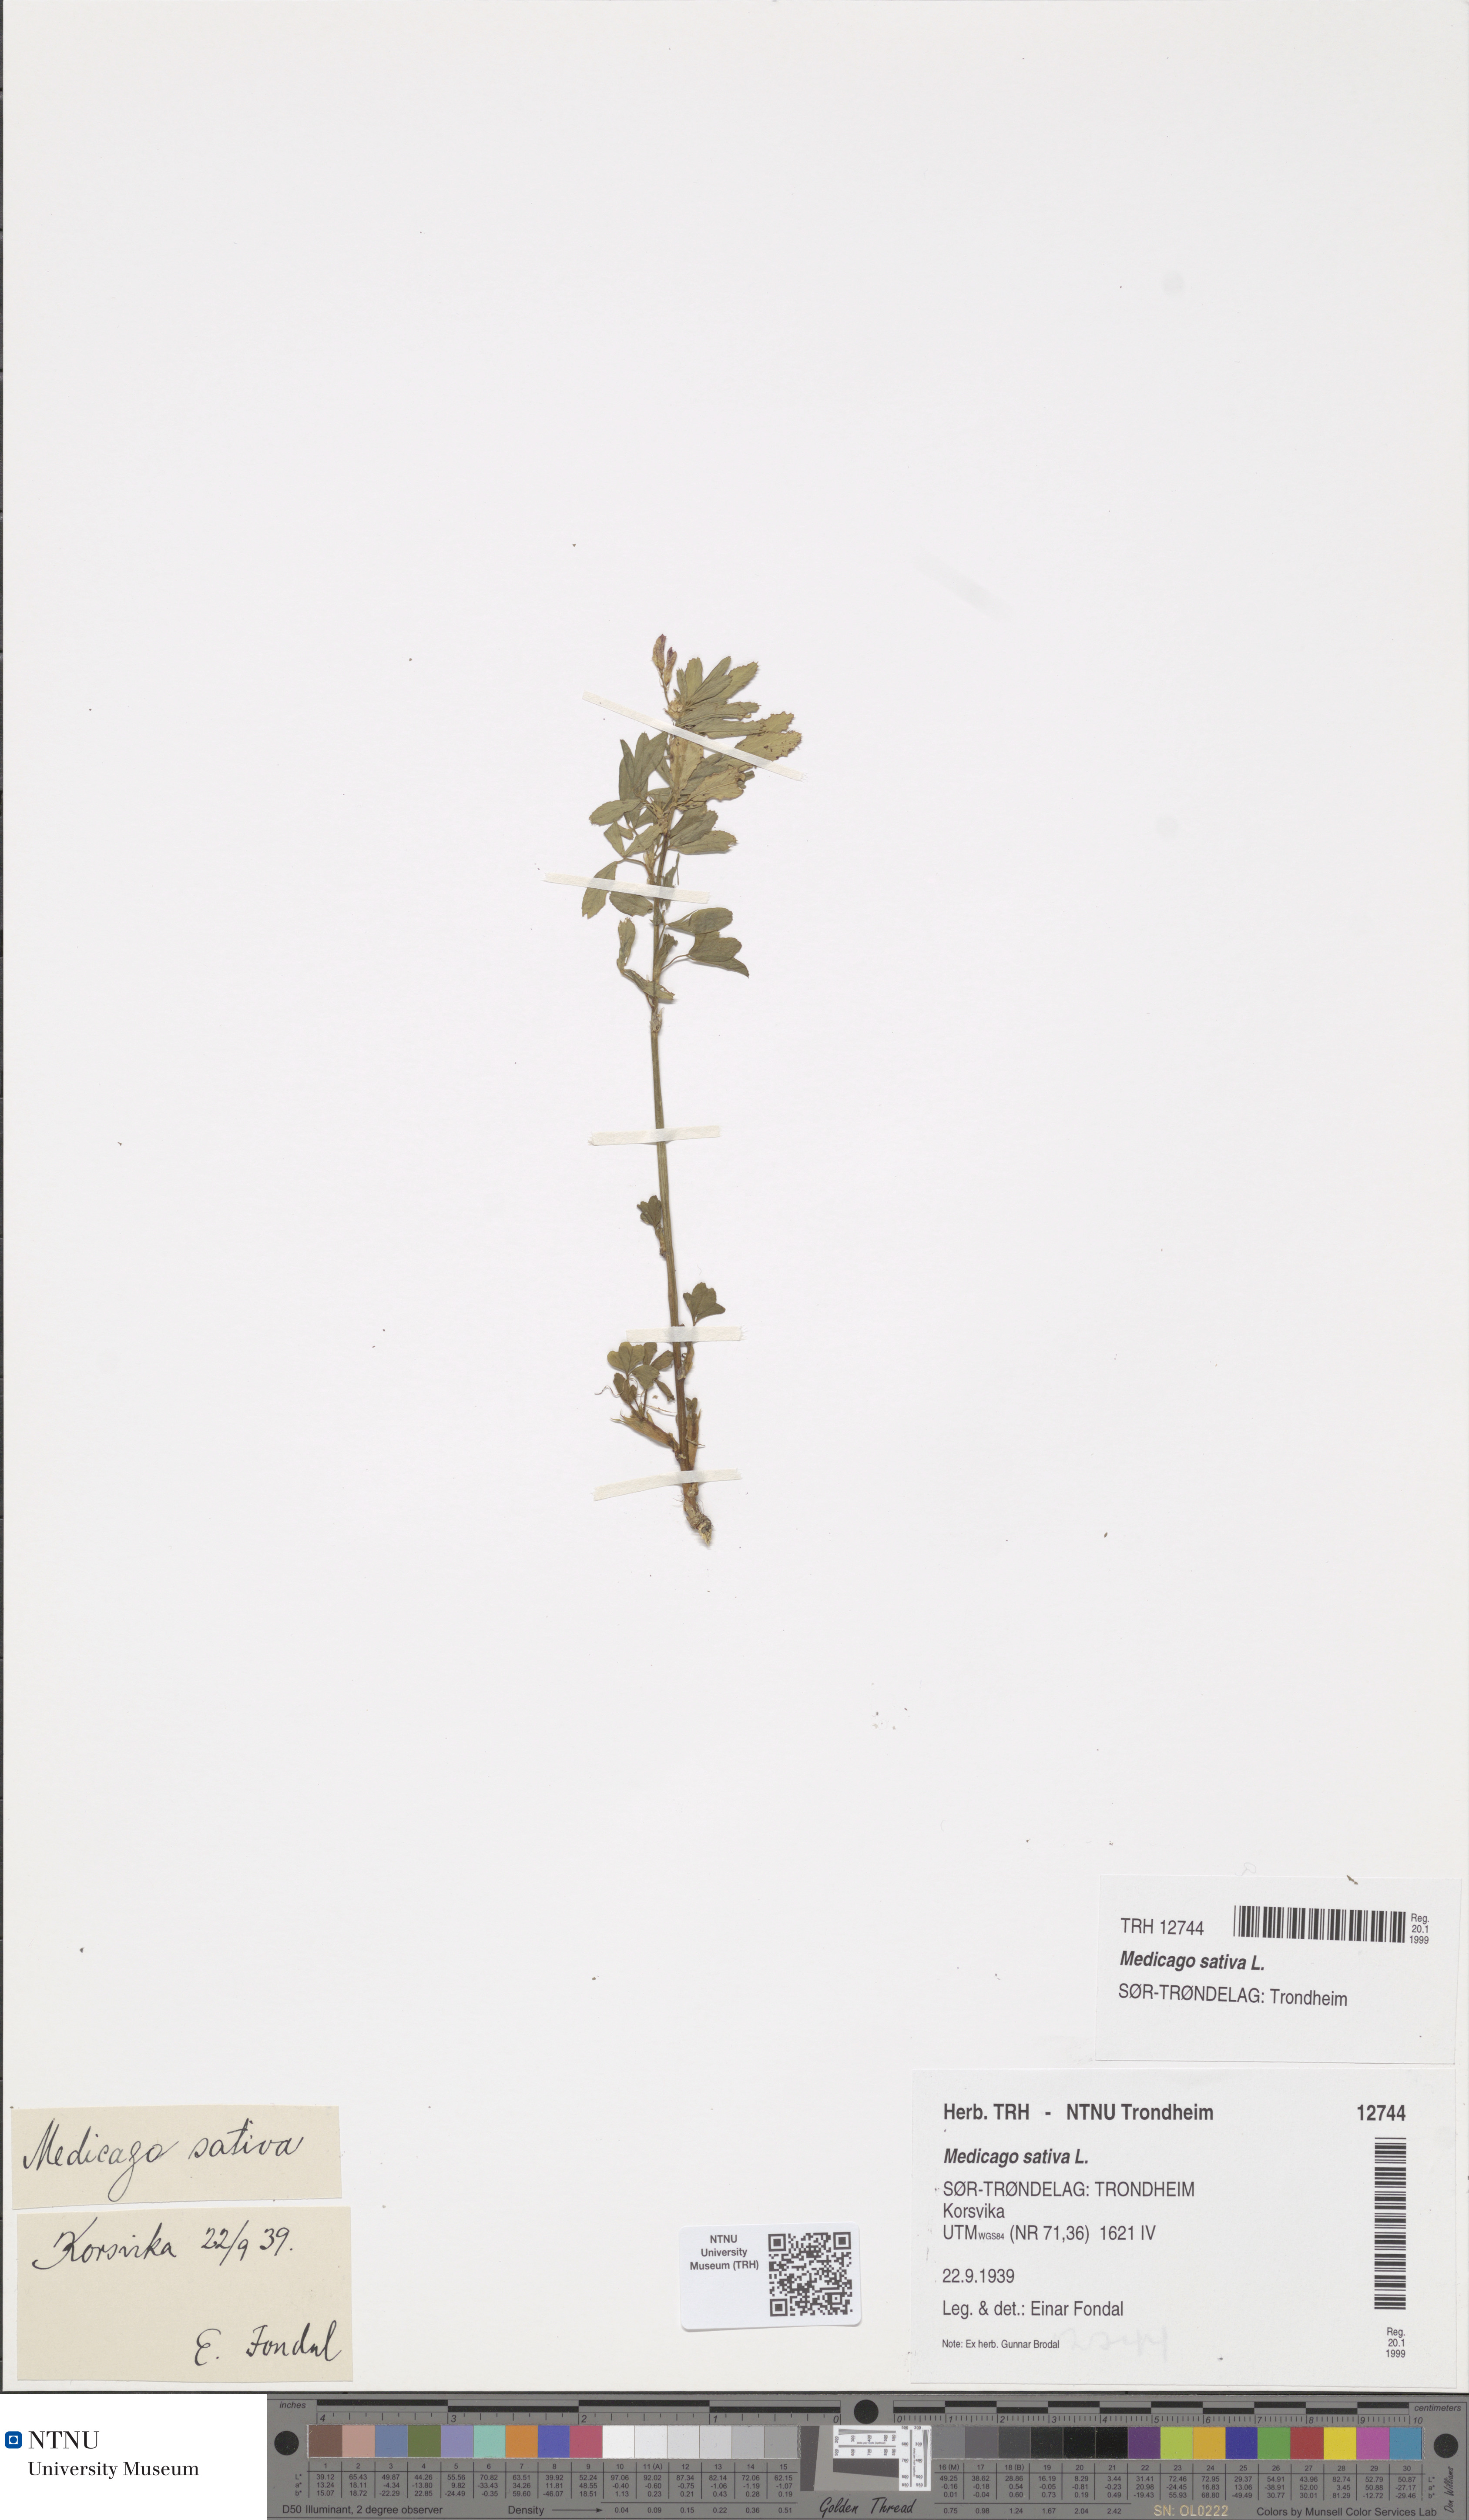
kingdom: Plantae
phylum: Tracheophyta
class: Magnoliopsida
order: Fabales
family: Fabaceae
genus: Medicago
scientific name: Medicago sativa
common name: Alfalfa
